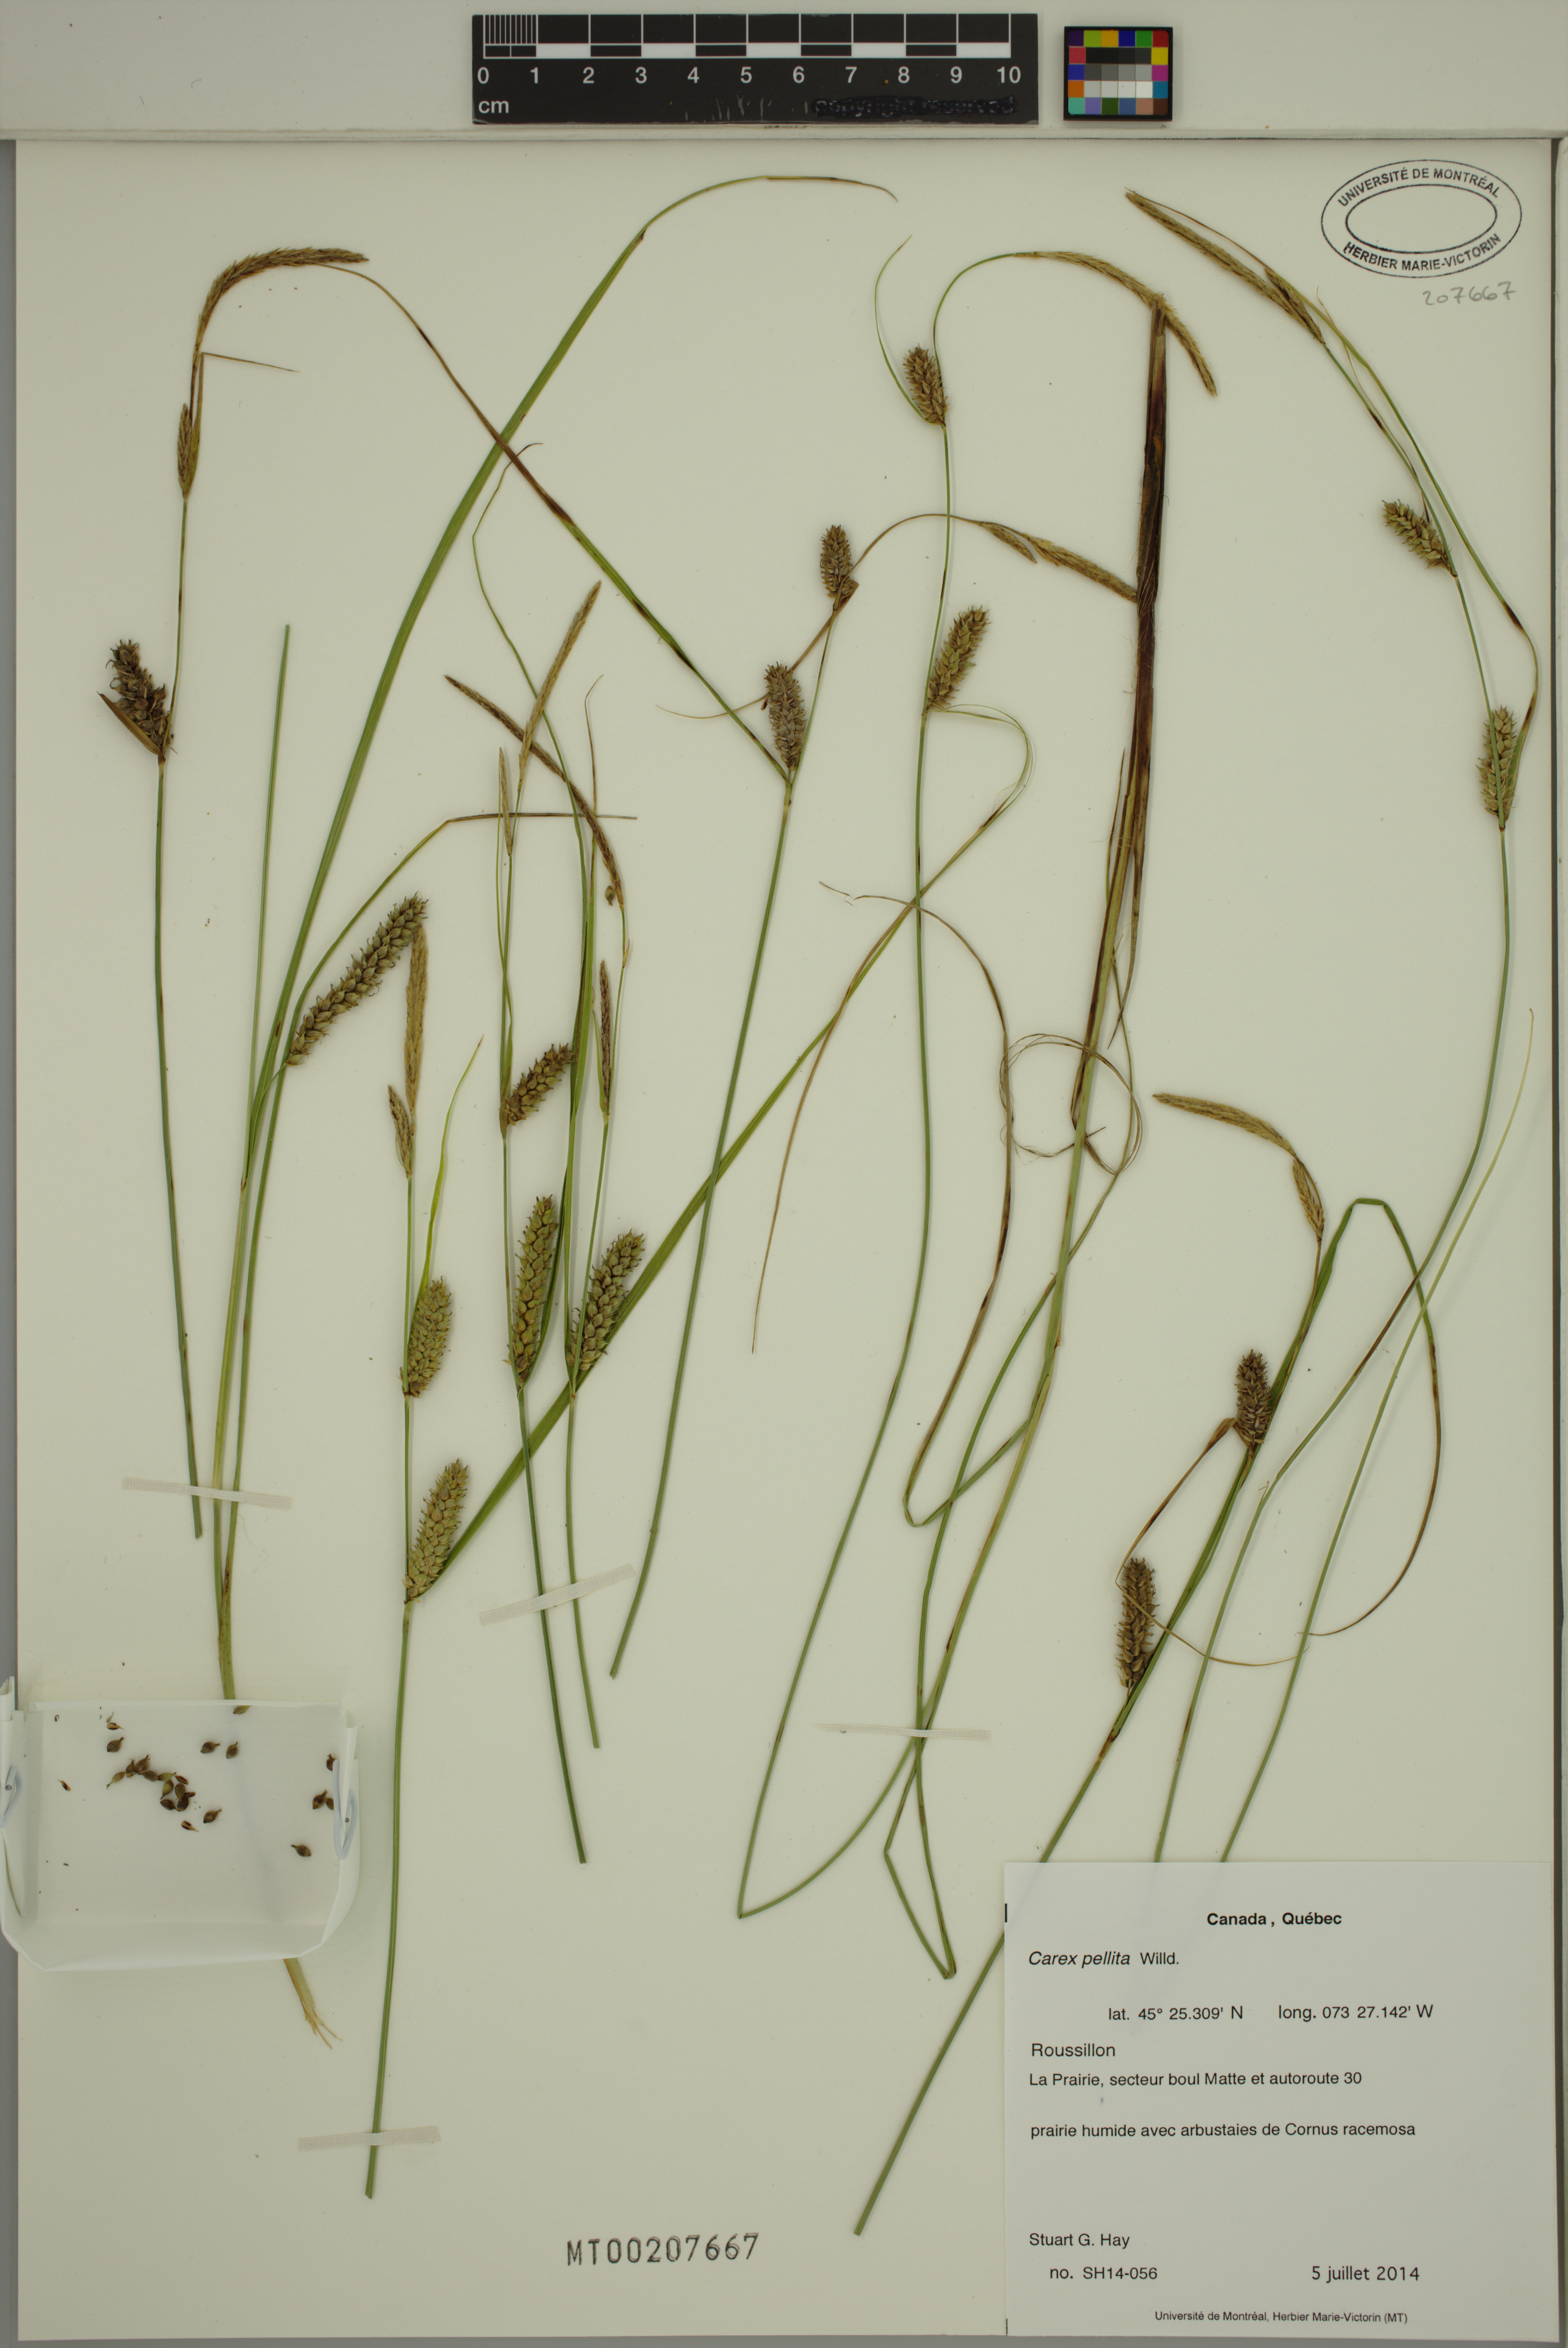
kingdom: Plantae
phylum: Tracheophyta
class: Liliopsida
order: Poales
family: Cyperaceae
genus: Carex
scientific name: Carex pellita
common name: Woolly sedge
